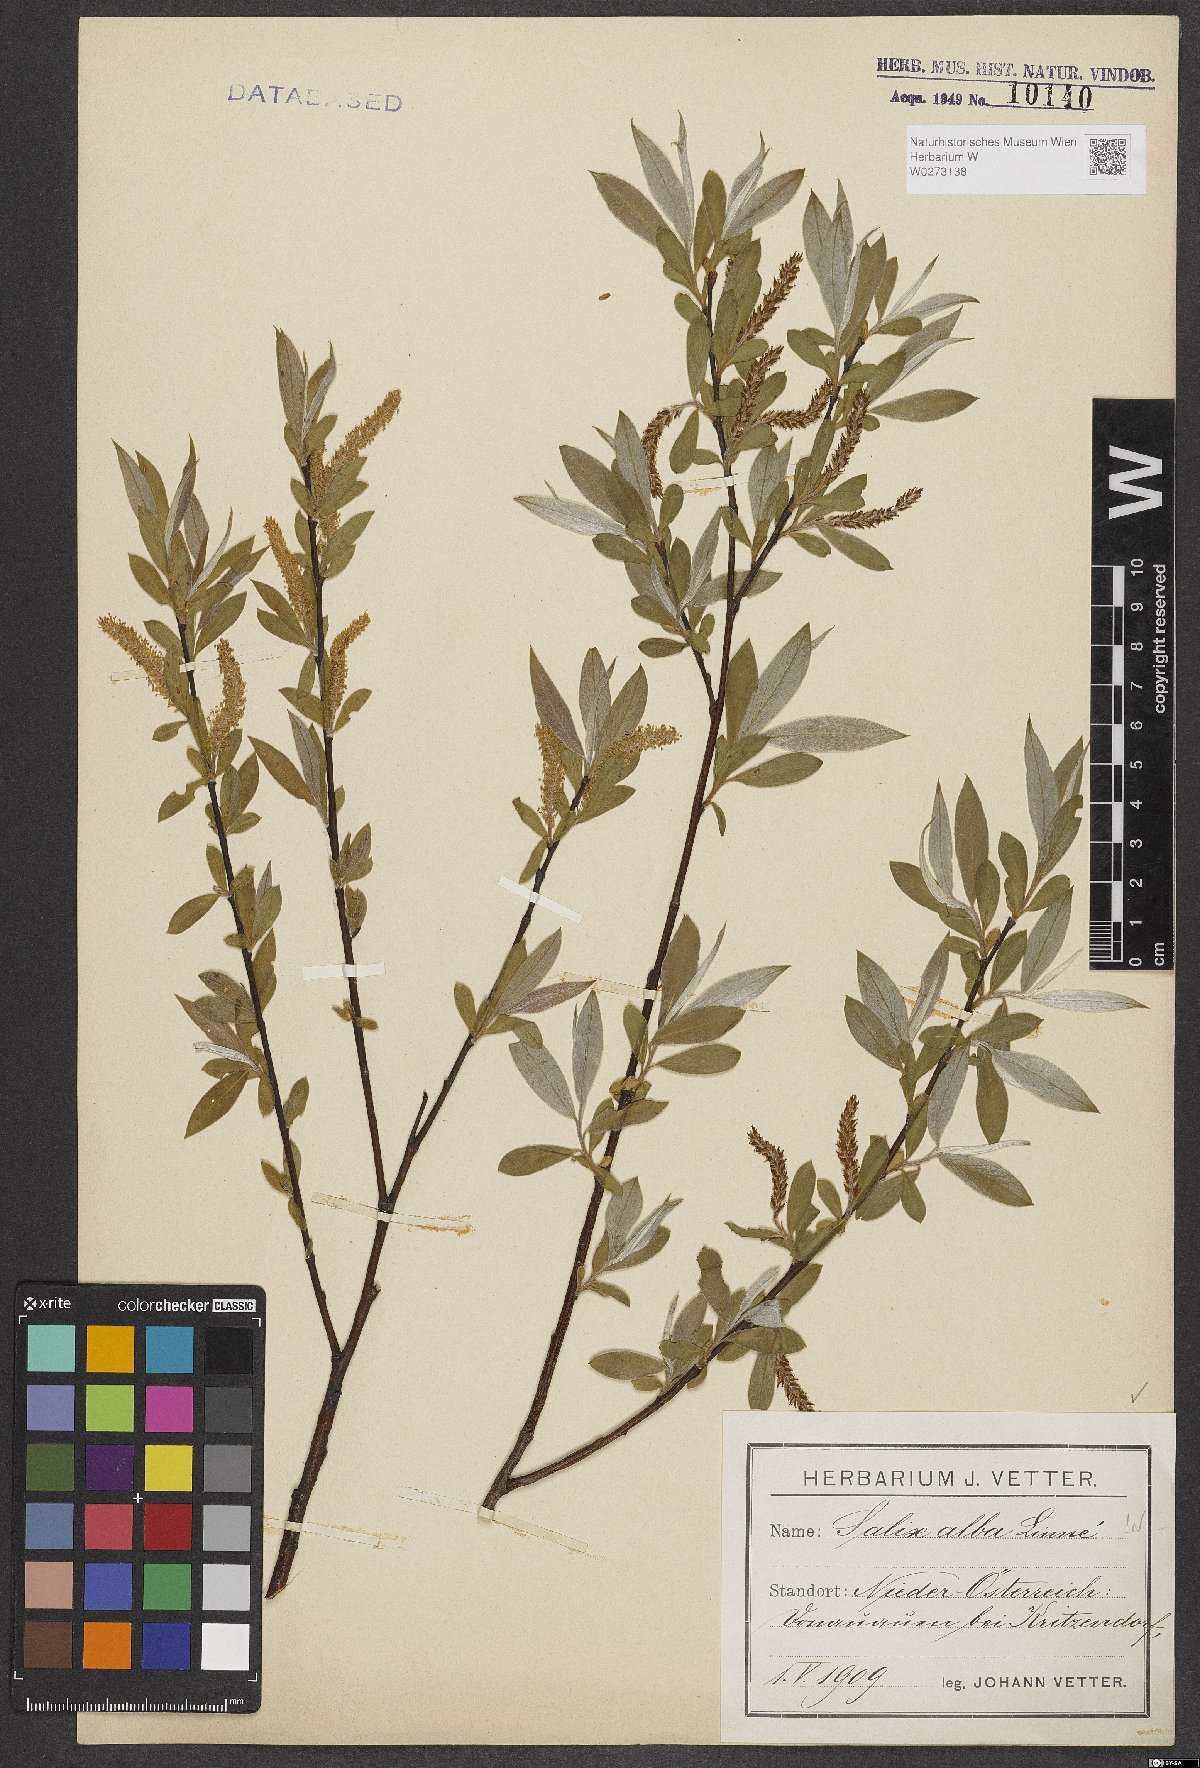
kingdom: Plantae
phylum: Tracheophyta
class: Magnoliopsida
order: Malpighiales
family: Salicaceae
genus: Salix
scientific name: Salix alba
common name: White willow
